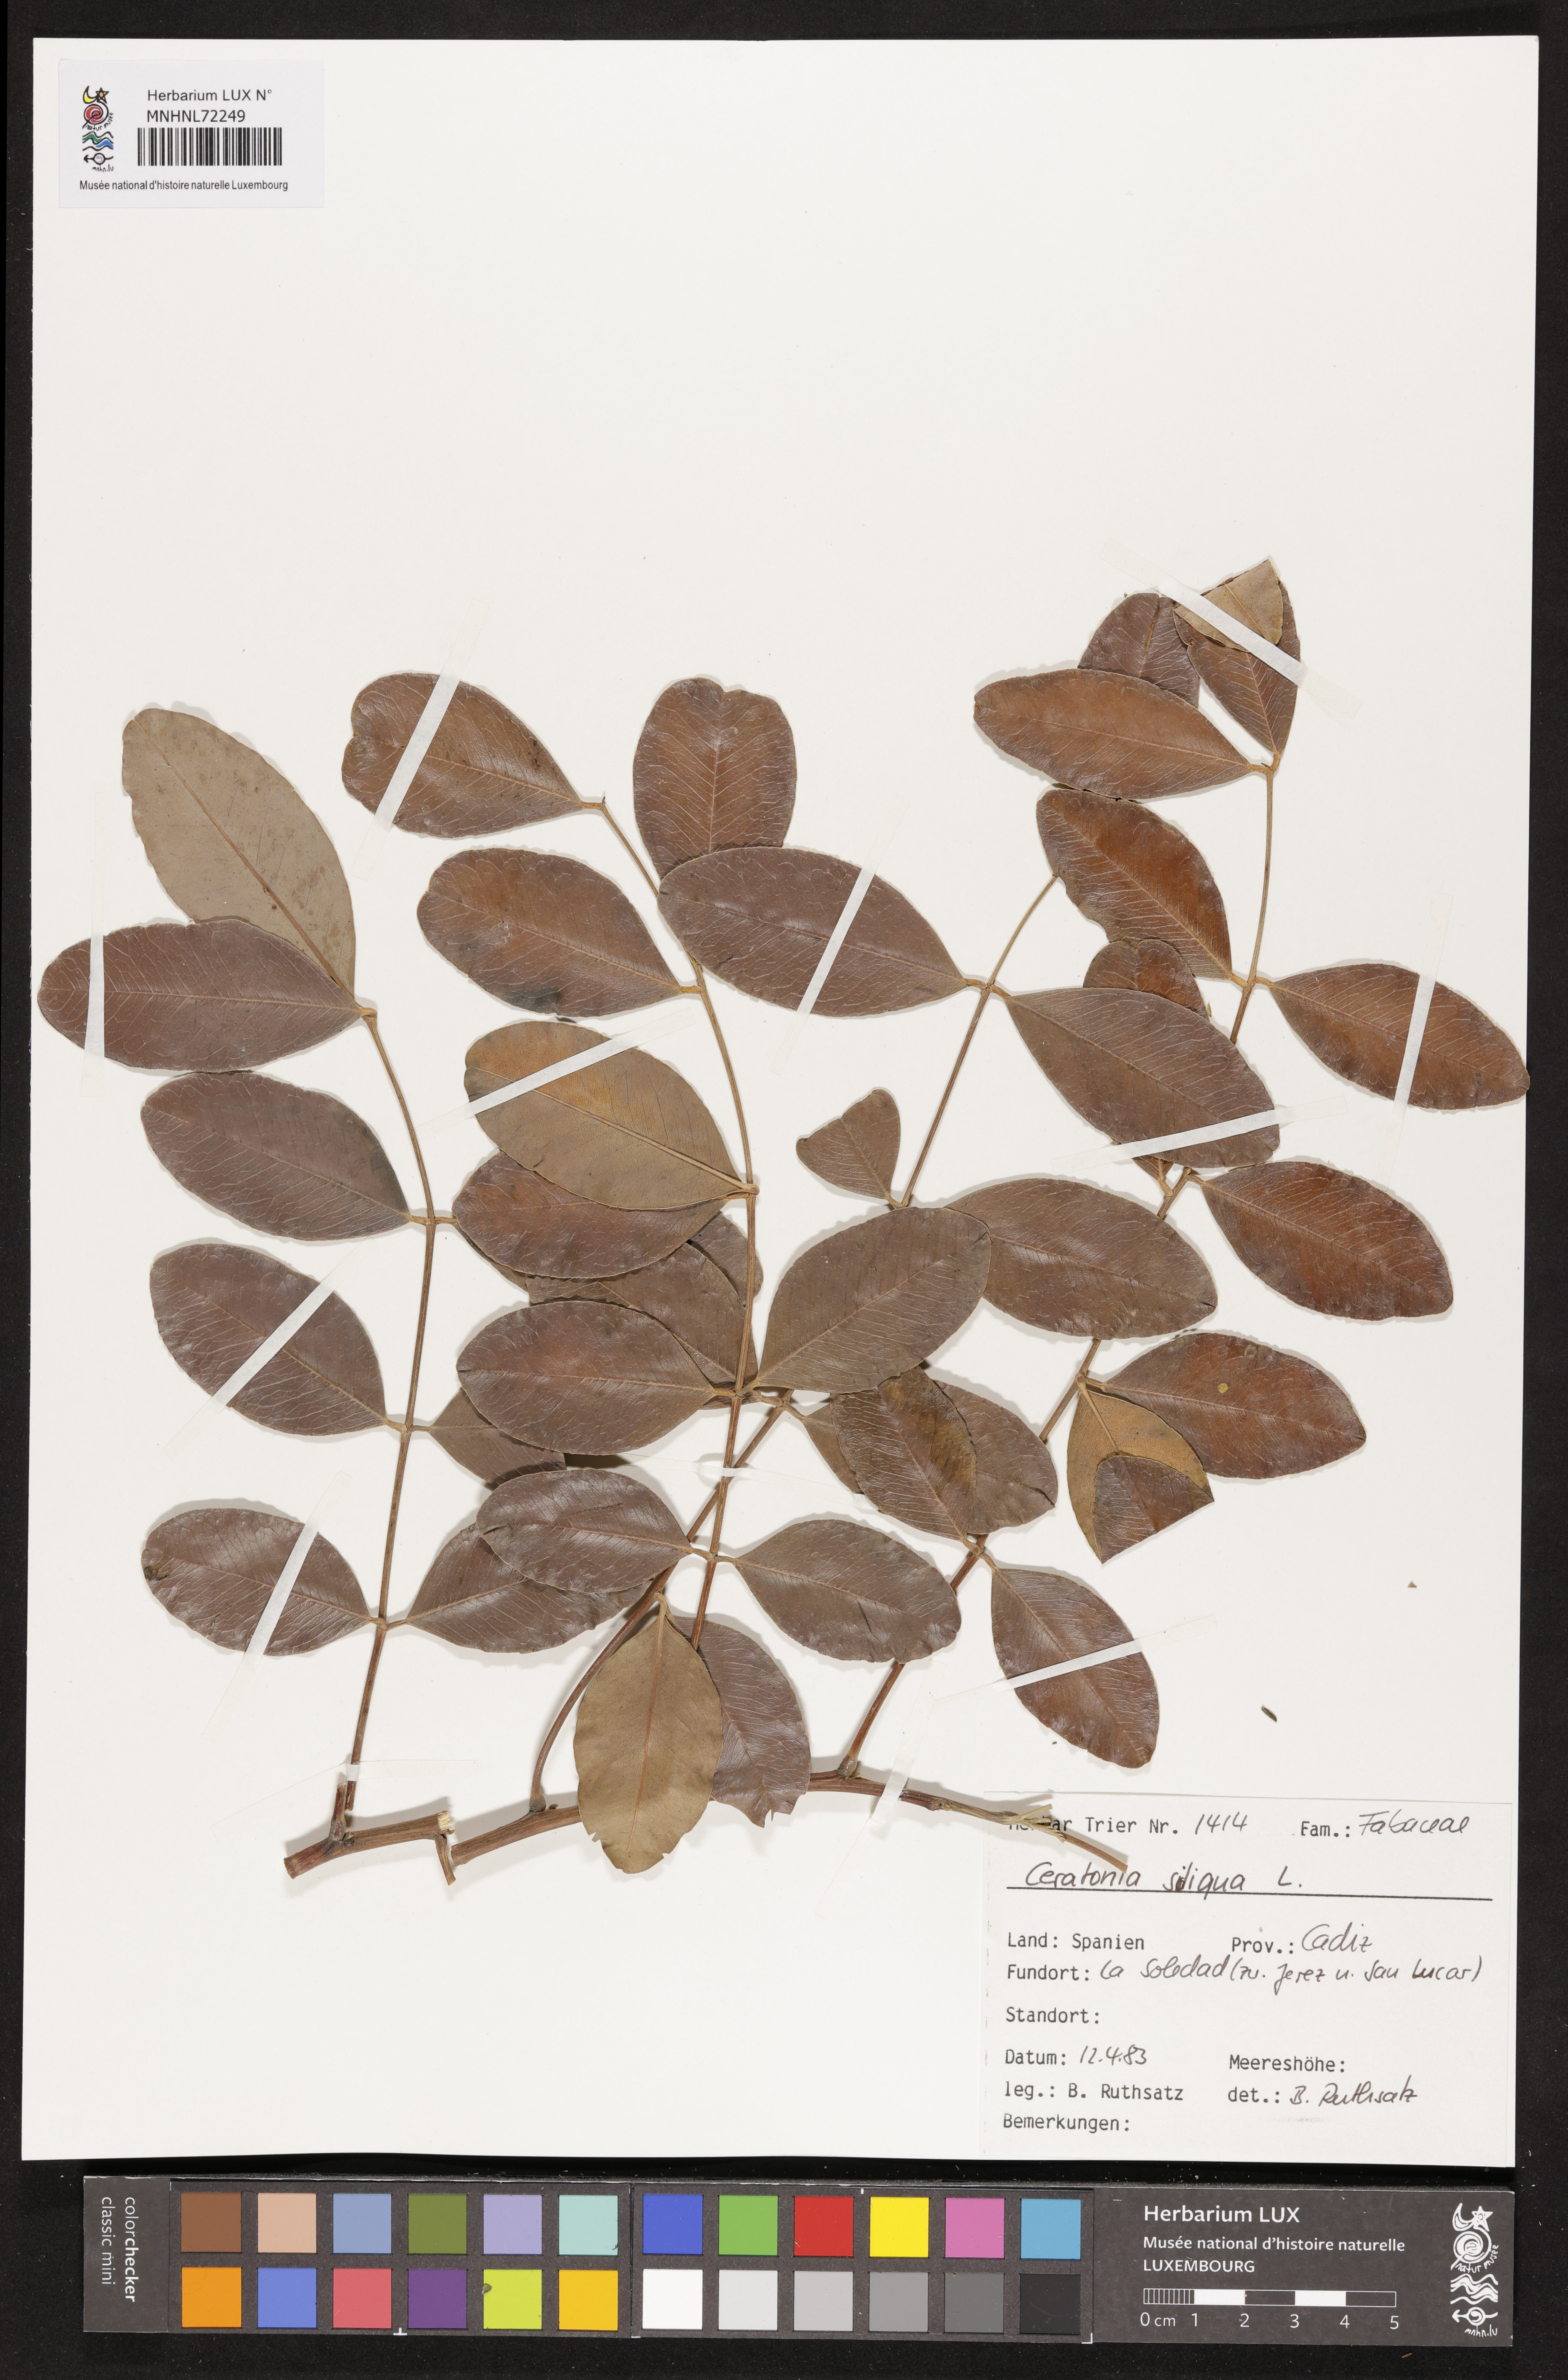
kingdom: Plantae
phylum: Tracheophyta
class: Magnoliopsida
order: Fabales
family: Fabaceae
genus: Ceratonia
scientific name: Ceratonia siliqua
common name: Carob
